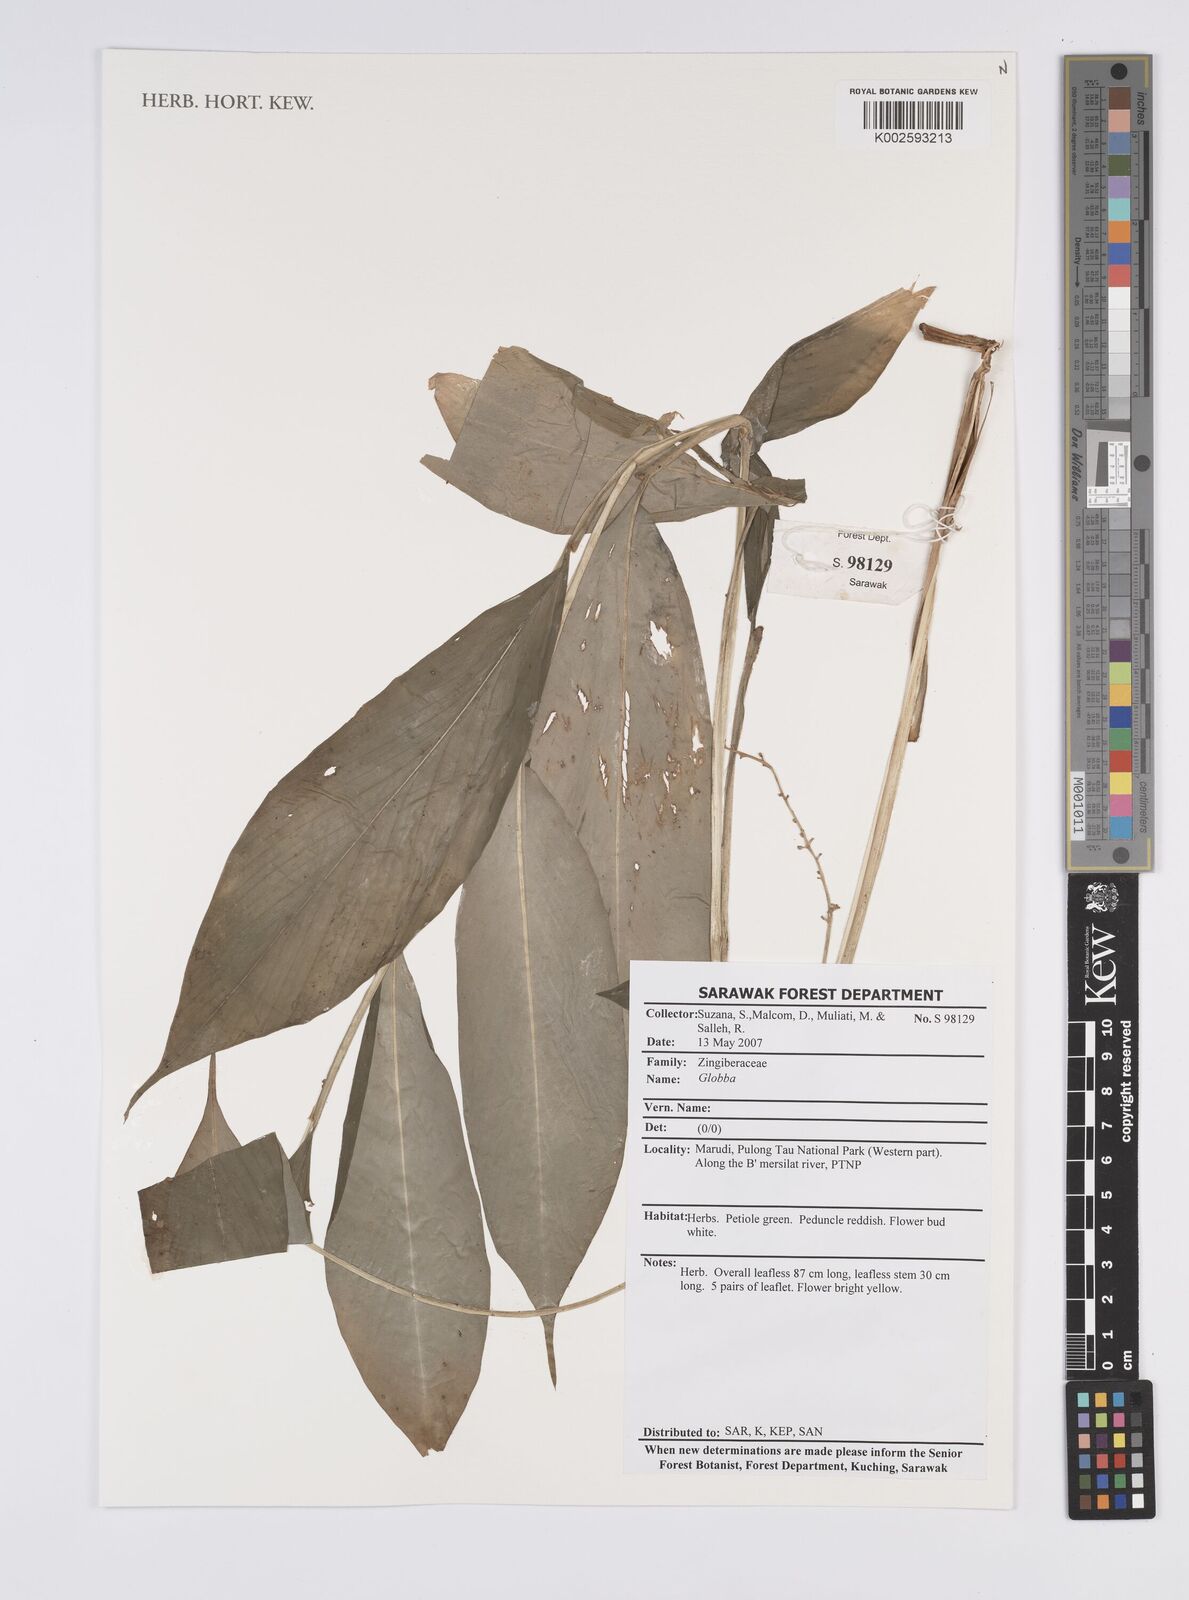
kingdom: Plantae
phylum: Tracheophyta
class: Liliopsida
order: Zingiberales
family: Zingiberaceae
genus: Globba
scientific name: Globba
